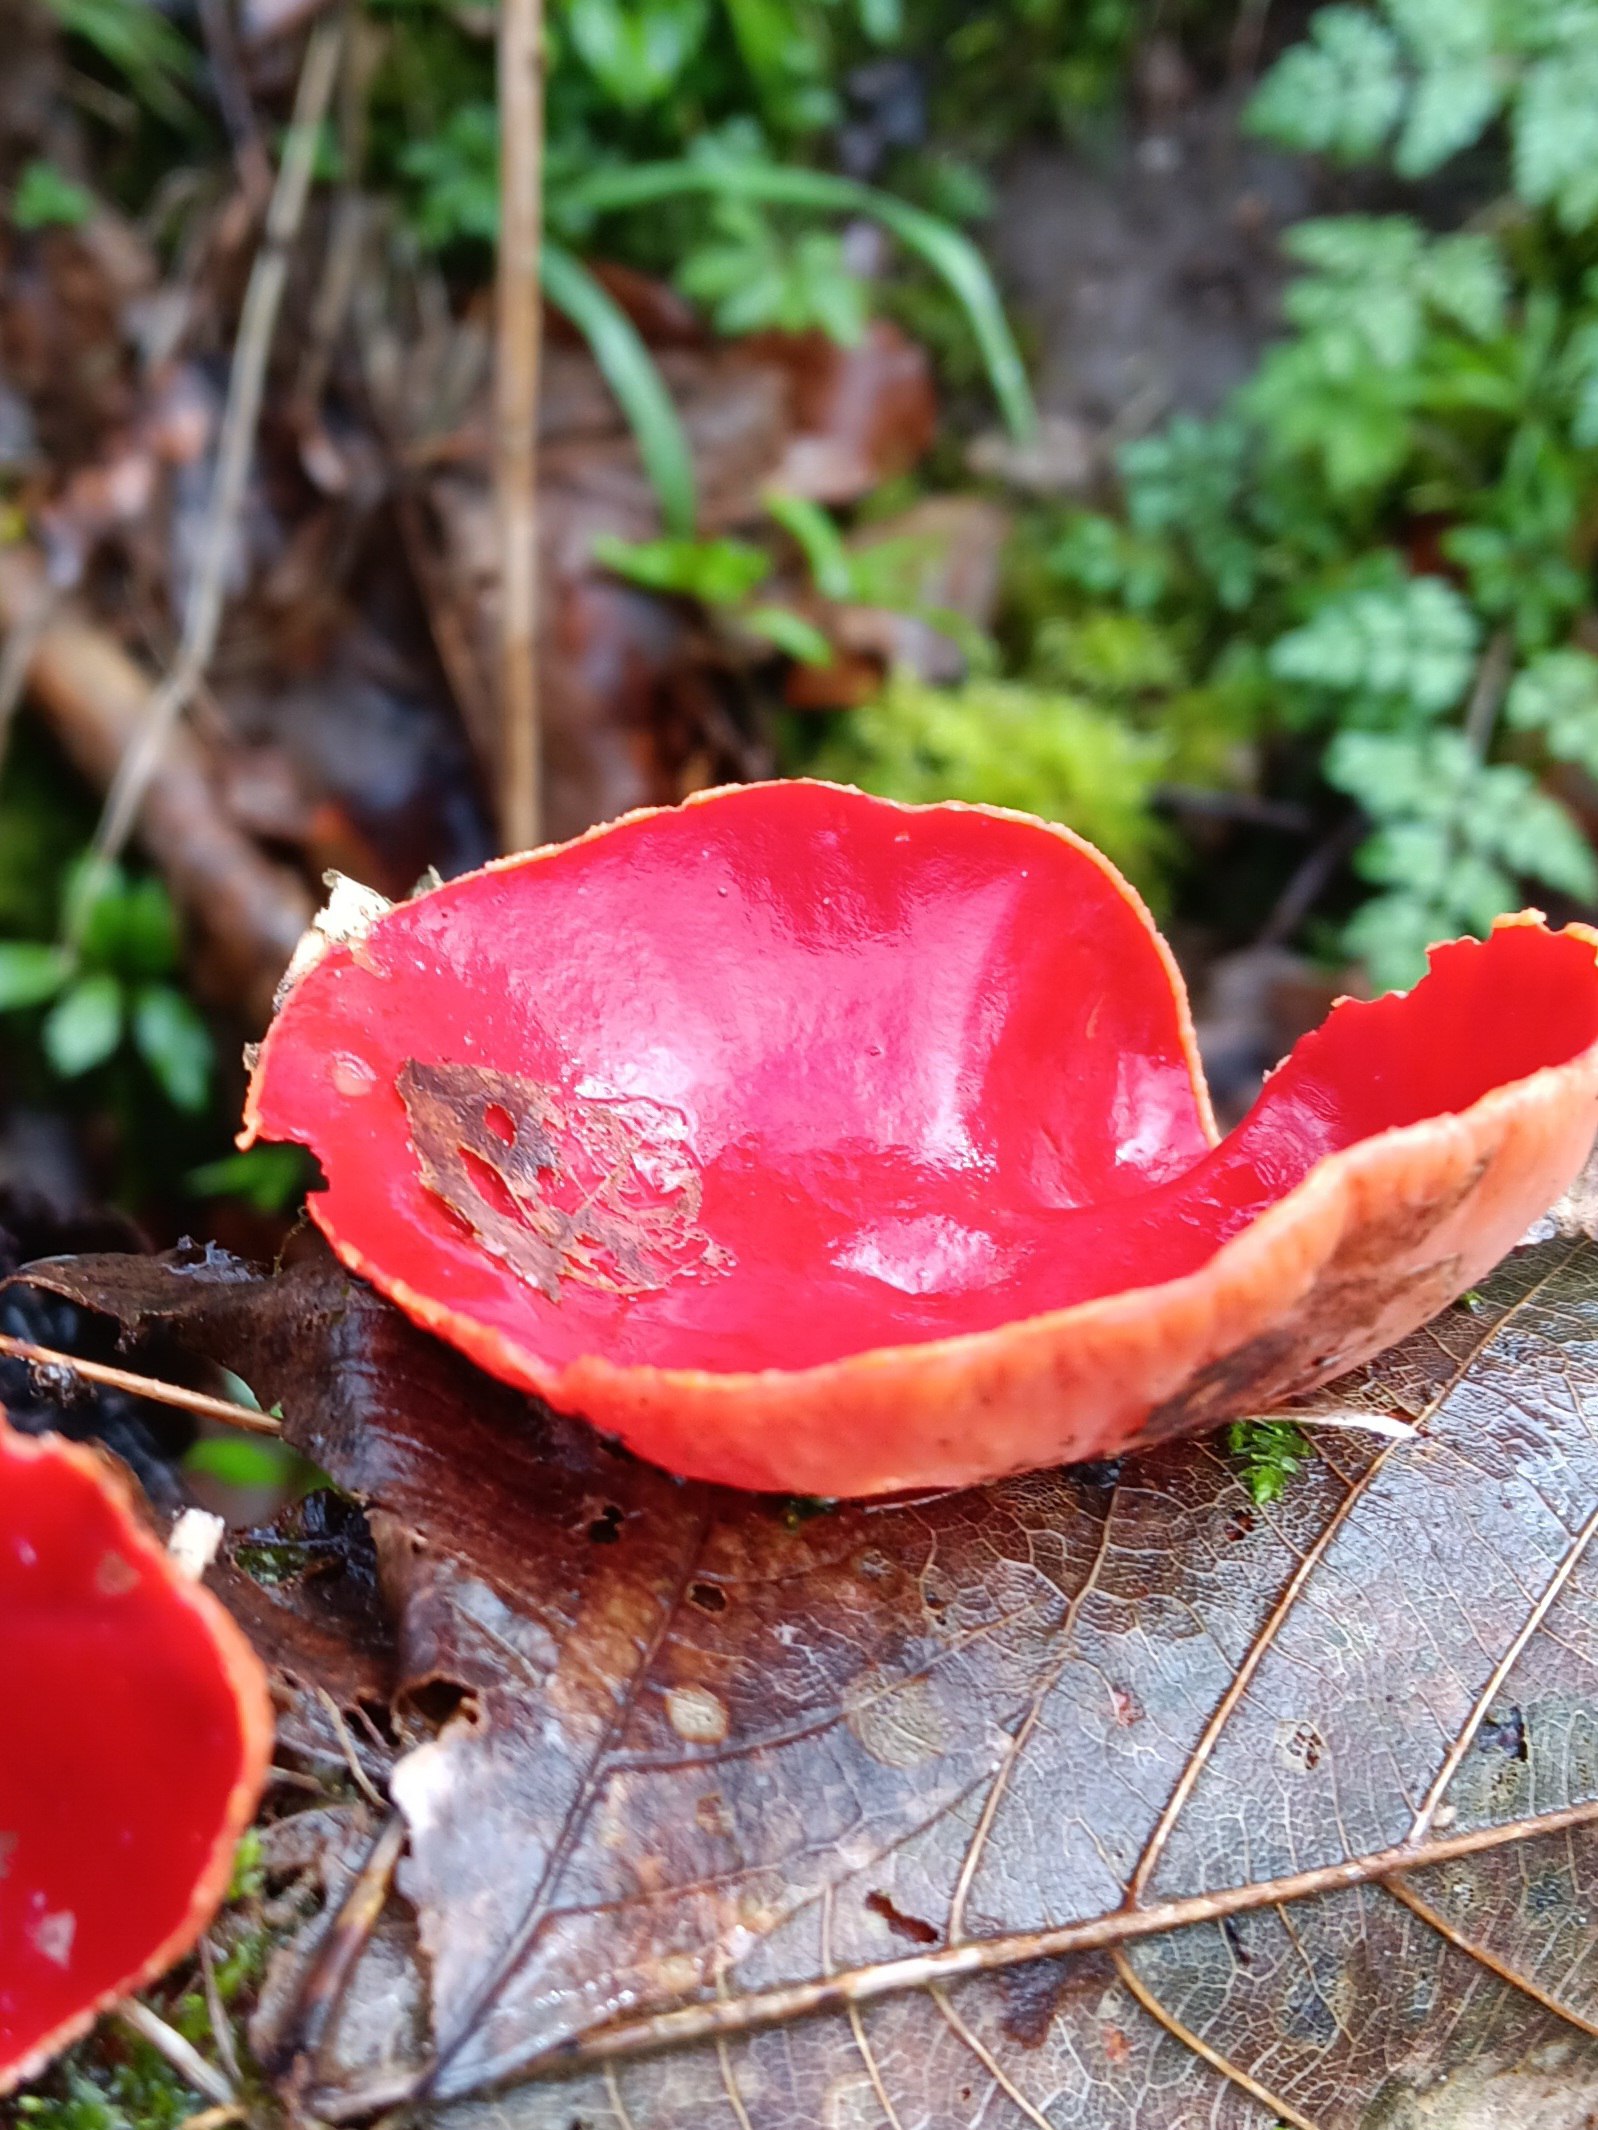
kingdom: Fungi
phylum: Ascomycota
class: Pezizomycetes
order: Pezizales
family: Sarcoscyphaceae
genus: Sarcoscypha
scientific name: Sarcoscypha austriaca
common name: krølhåret pragtbæger
